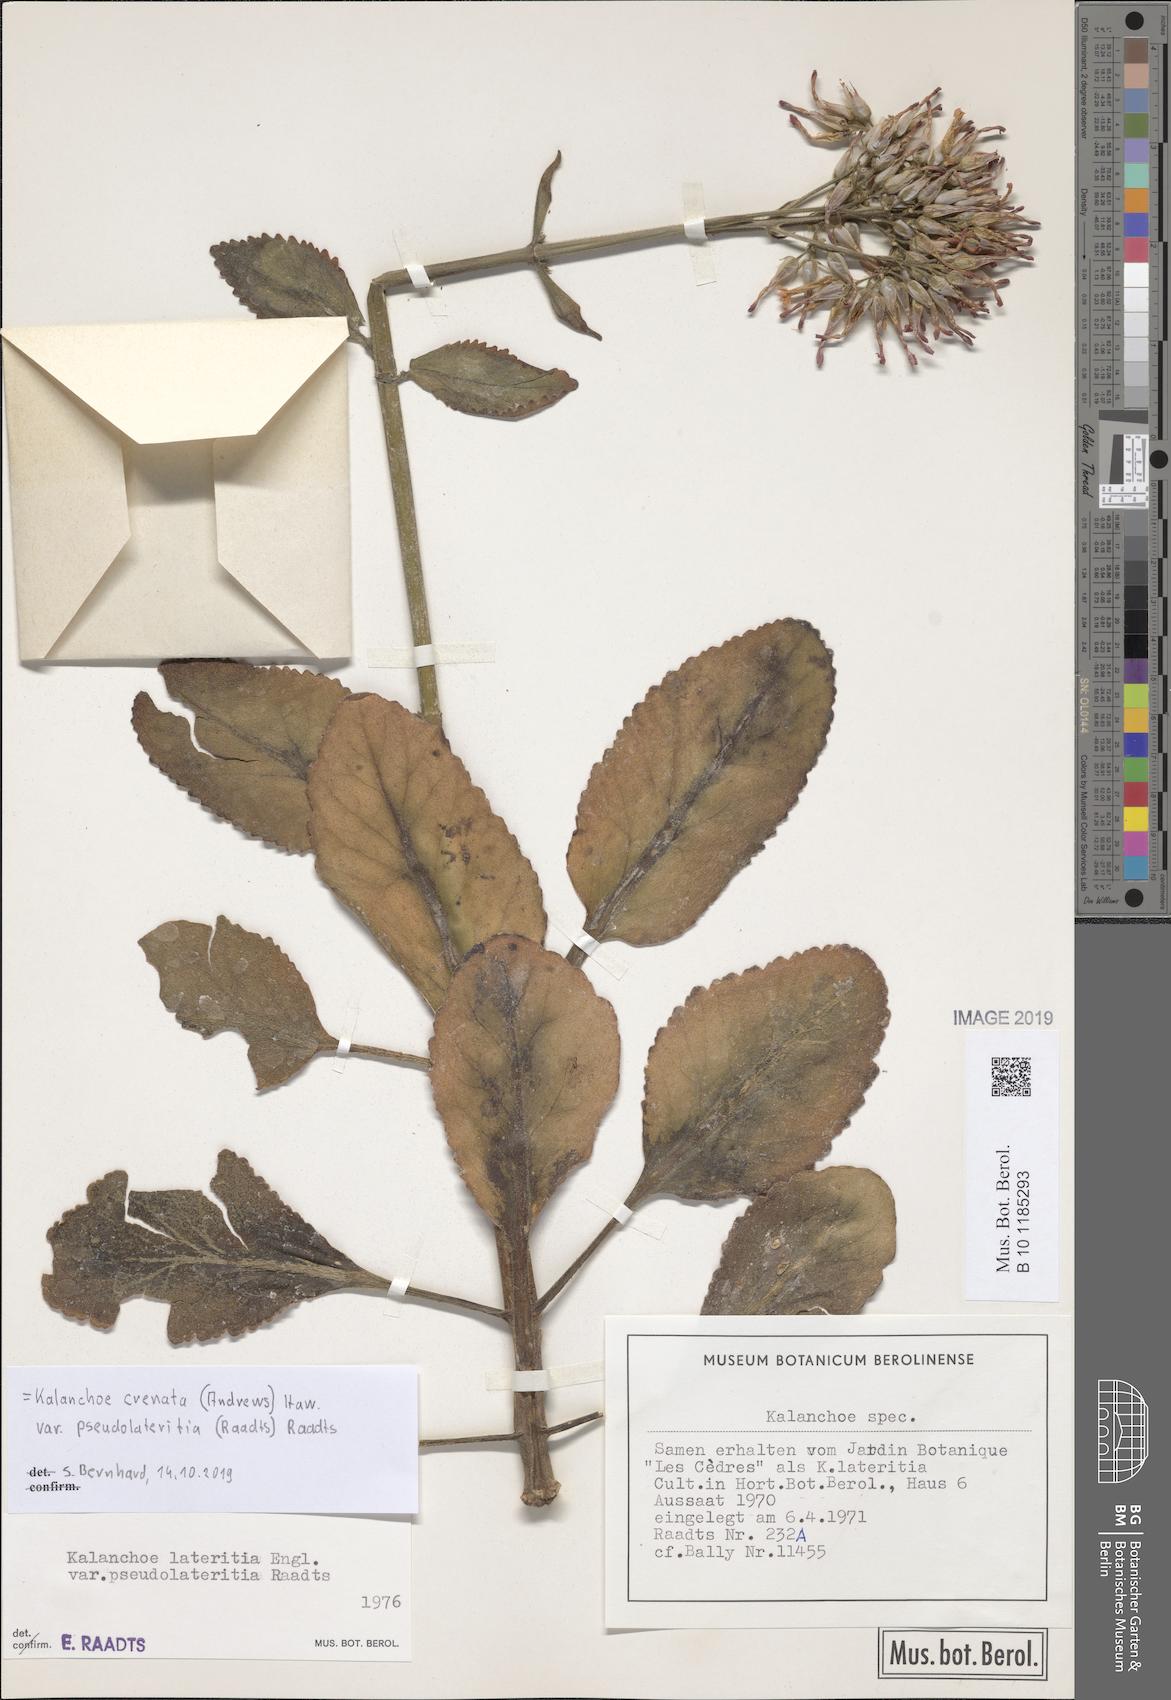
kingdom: Plantae
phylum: Tracheophyta
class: Magnoliopsida
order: Saxifragales
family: Crassulaceae
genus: Kalanchoe
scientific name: Kalanchoe lateritia
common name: Kalanchoe
